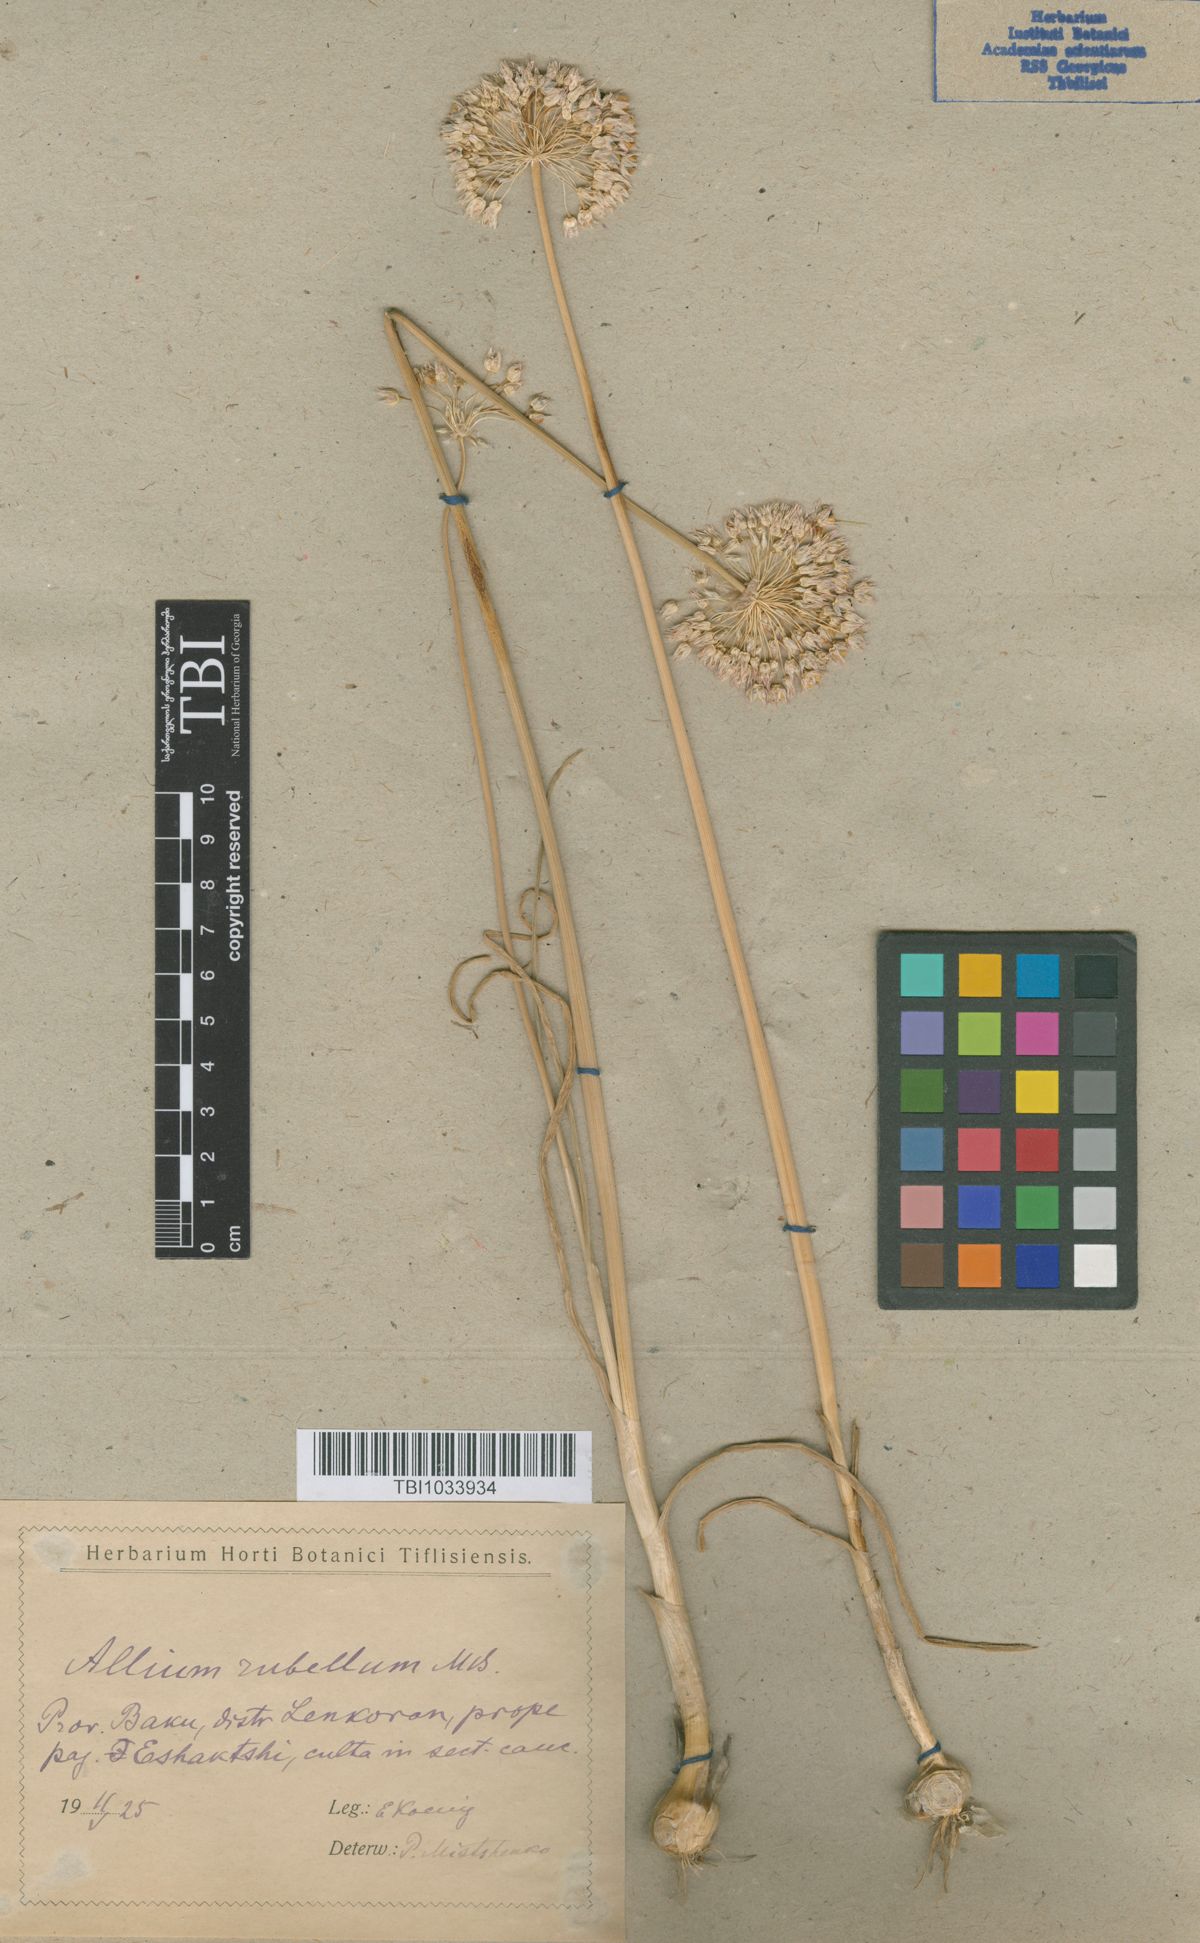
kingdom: Plantae
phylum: Tracheophyta
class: Liliopsida
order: Asparagales
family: Amaryllidaceae
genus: Allium
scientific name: Allium rubellum
